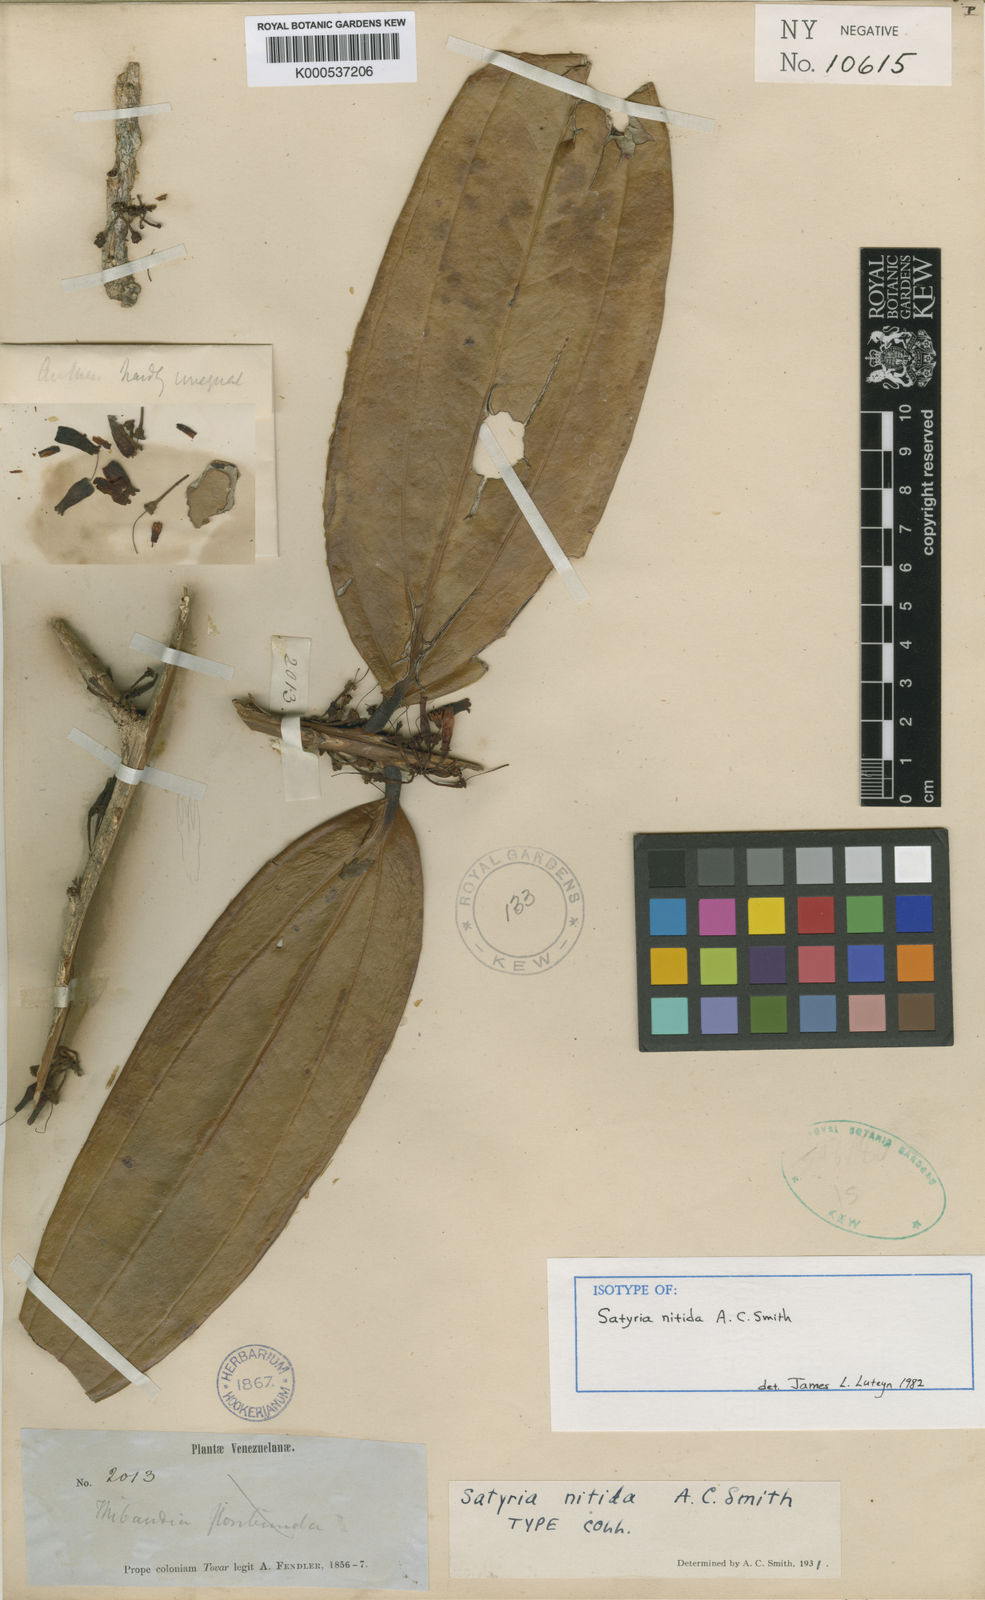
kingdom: Plantae
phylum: Tracheophyta
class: Magnoliopsida
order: Ericales
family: Ericaceae
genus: Satyria
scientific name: Satyria nitida
